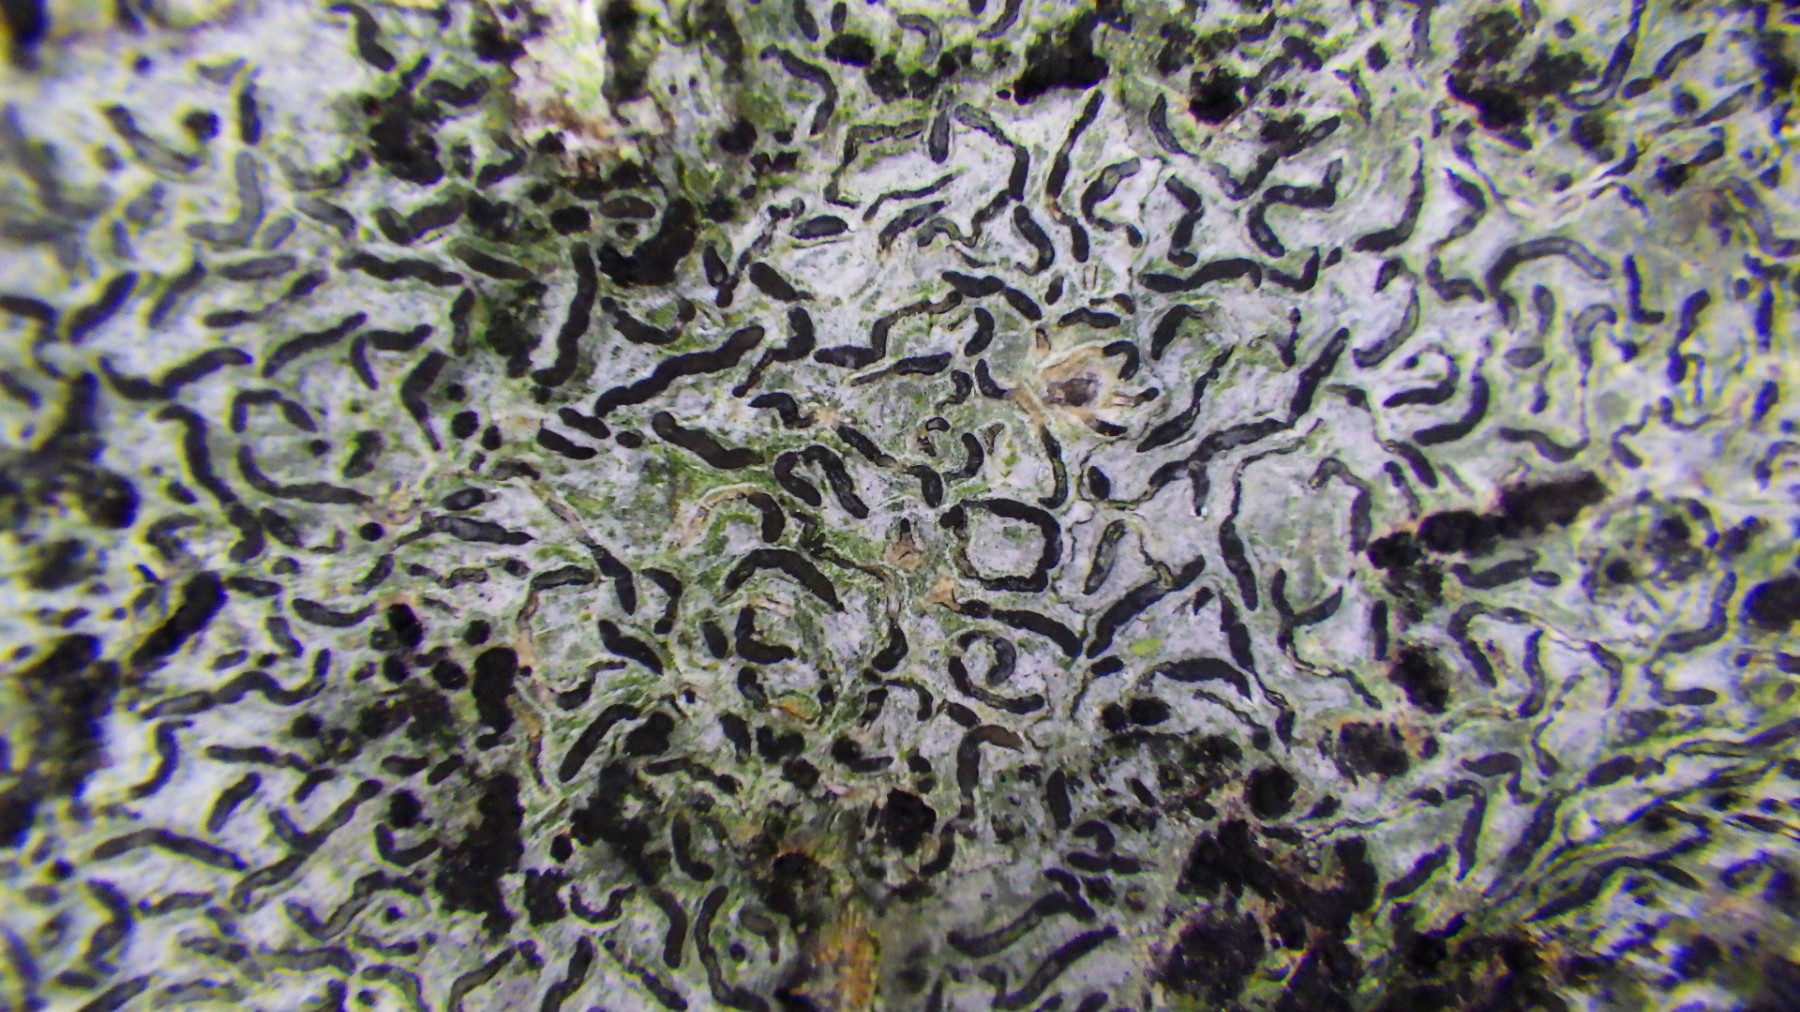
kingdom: Fungi
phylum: Ascomycota
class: Lecanoromycetes
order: Ostropales
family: Graphidaceae
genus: Graphis
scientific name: Graphis scripta
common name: almindelig skriftlav
